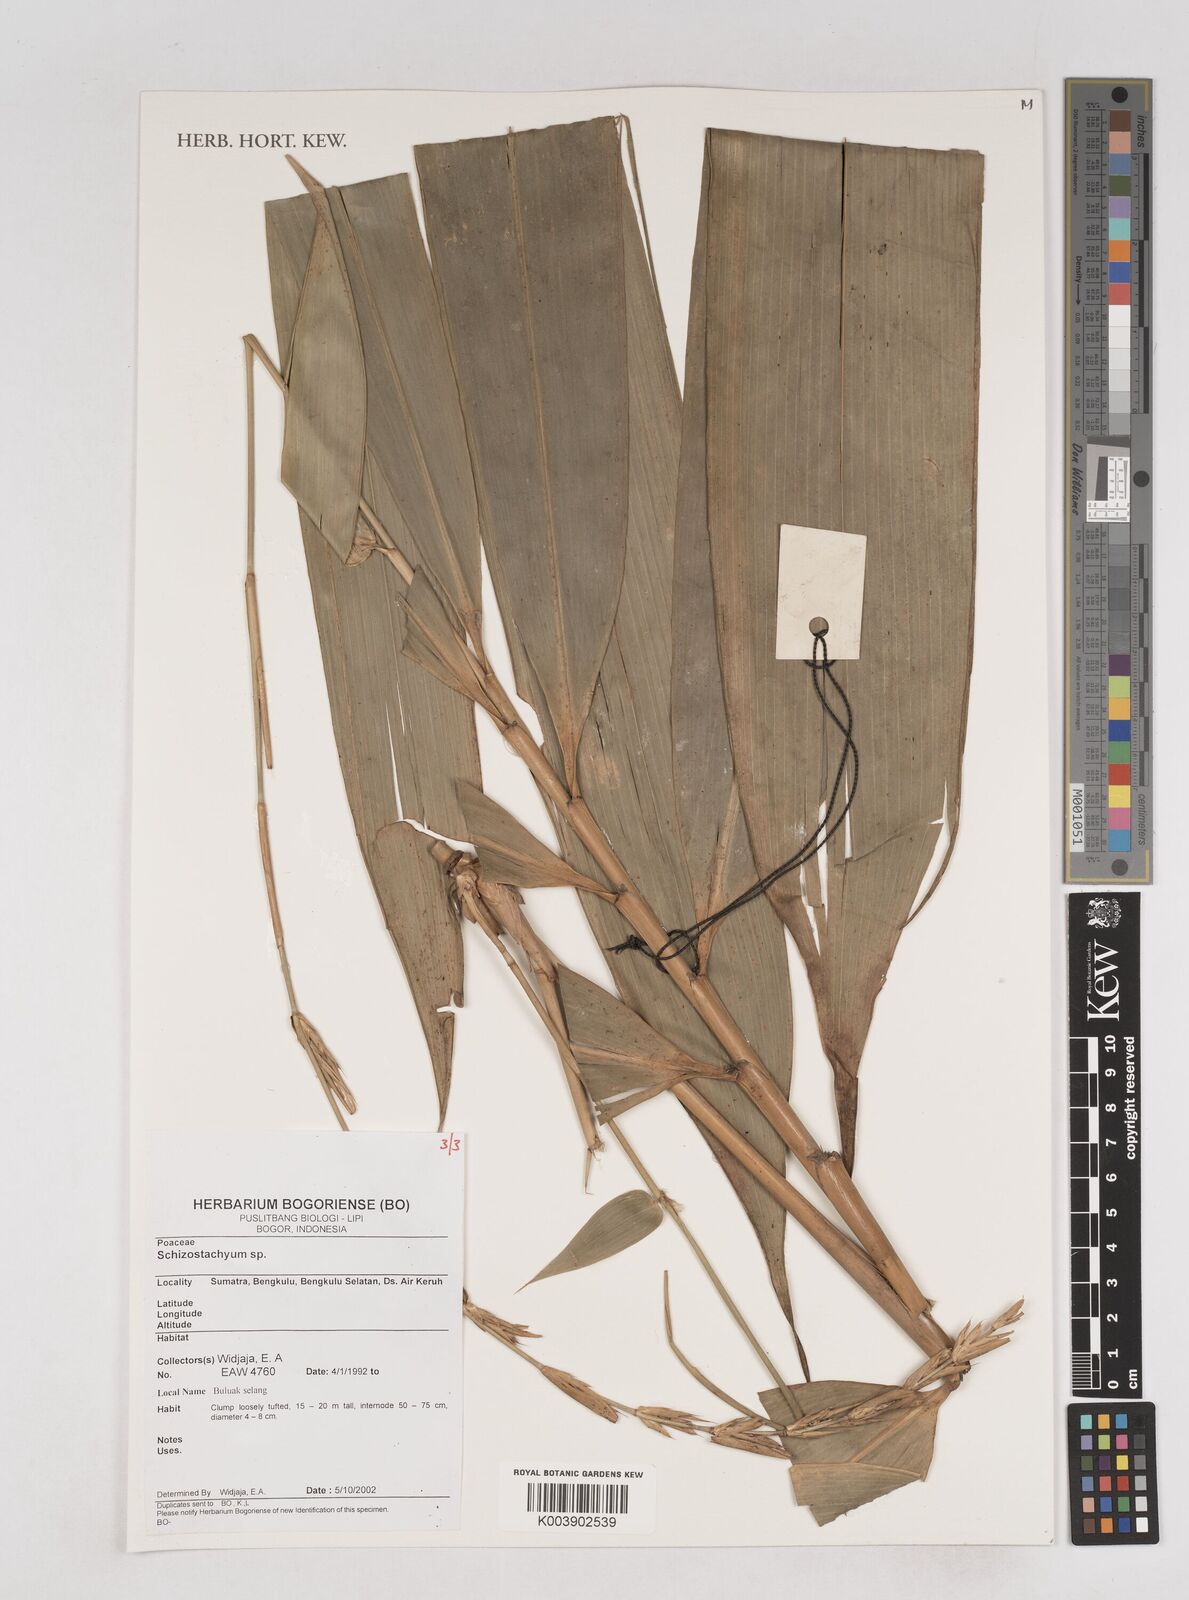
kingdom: Plantae
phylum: Tracheophyta
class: Liliopsida
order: Poales
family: Poaceae
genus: Schizostachyum
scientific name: Schizostachyum
